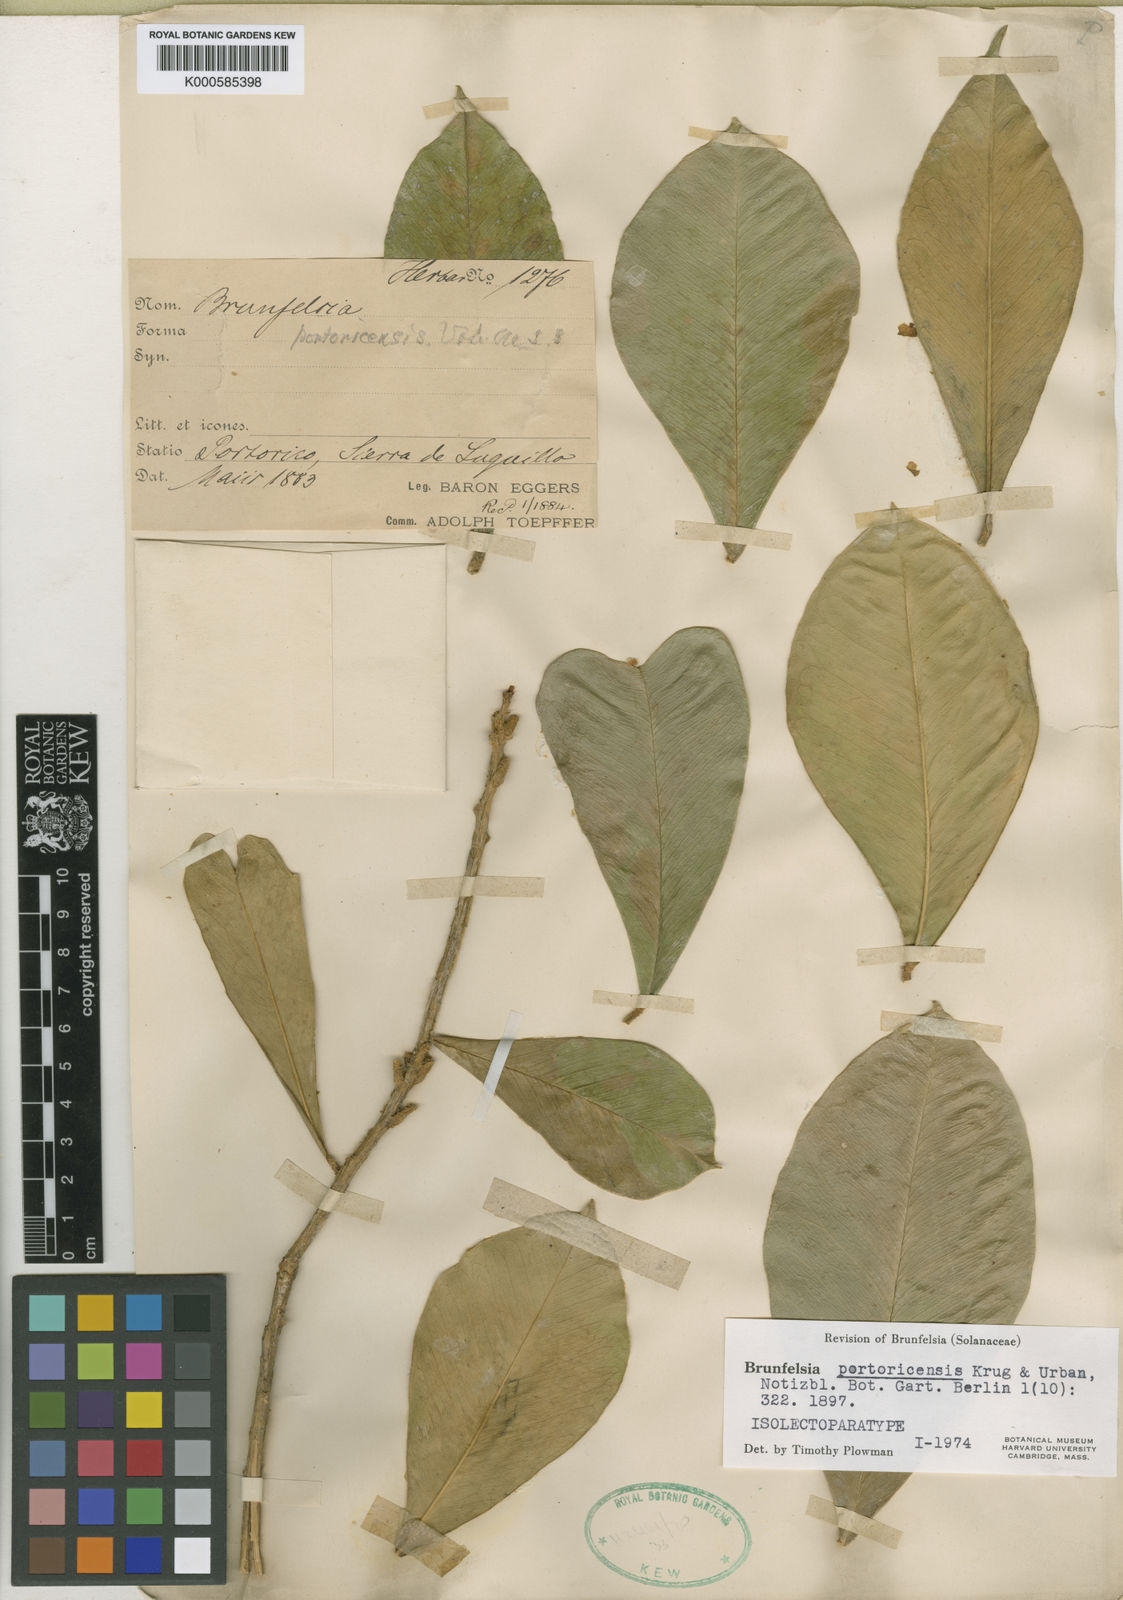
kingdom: Plantae
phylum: Tracheophyta
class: Magnoliopsida
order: Solanales
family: Solanaceae
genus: Brunfelsia
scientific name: Brunfelsia portoricensis
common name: Puerto rico raintree
